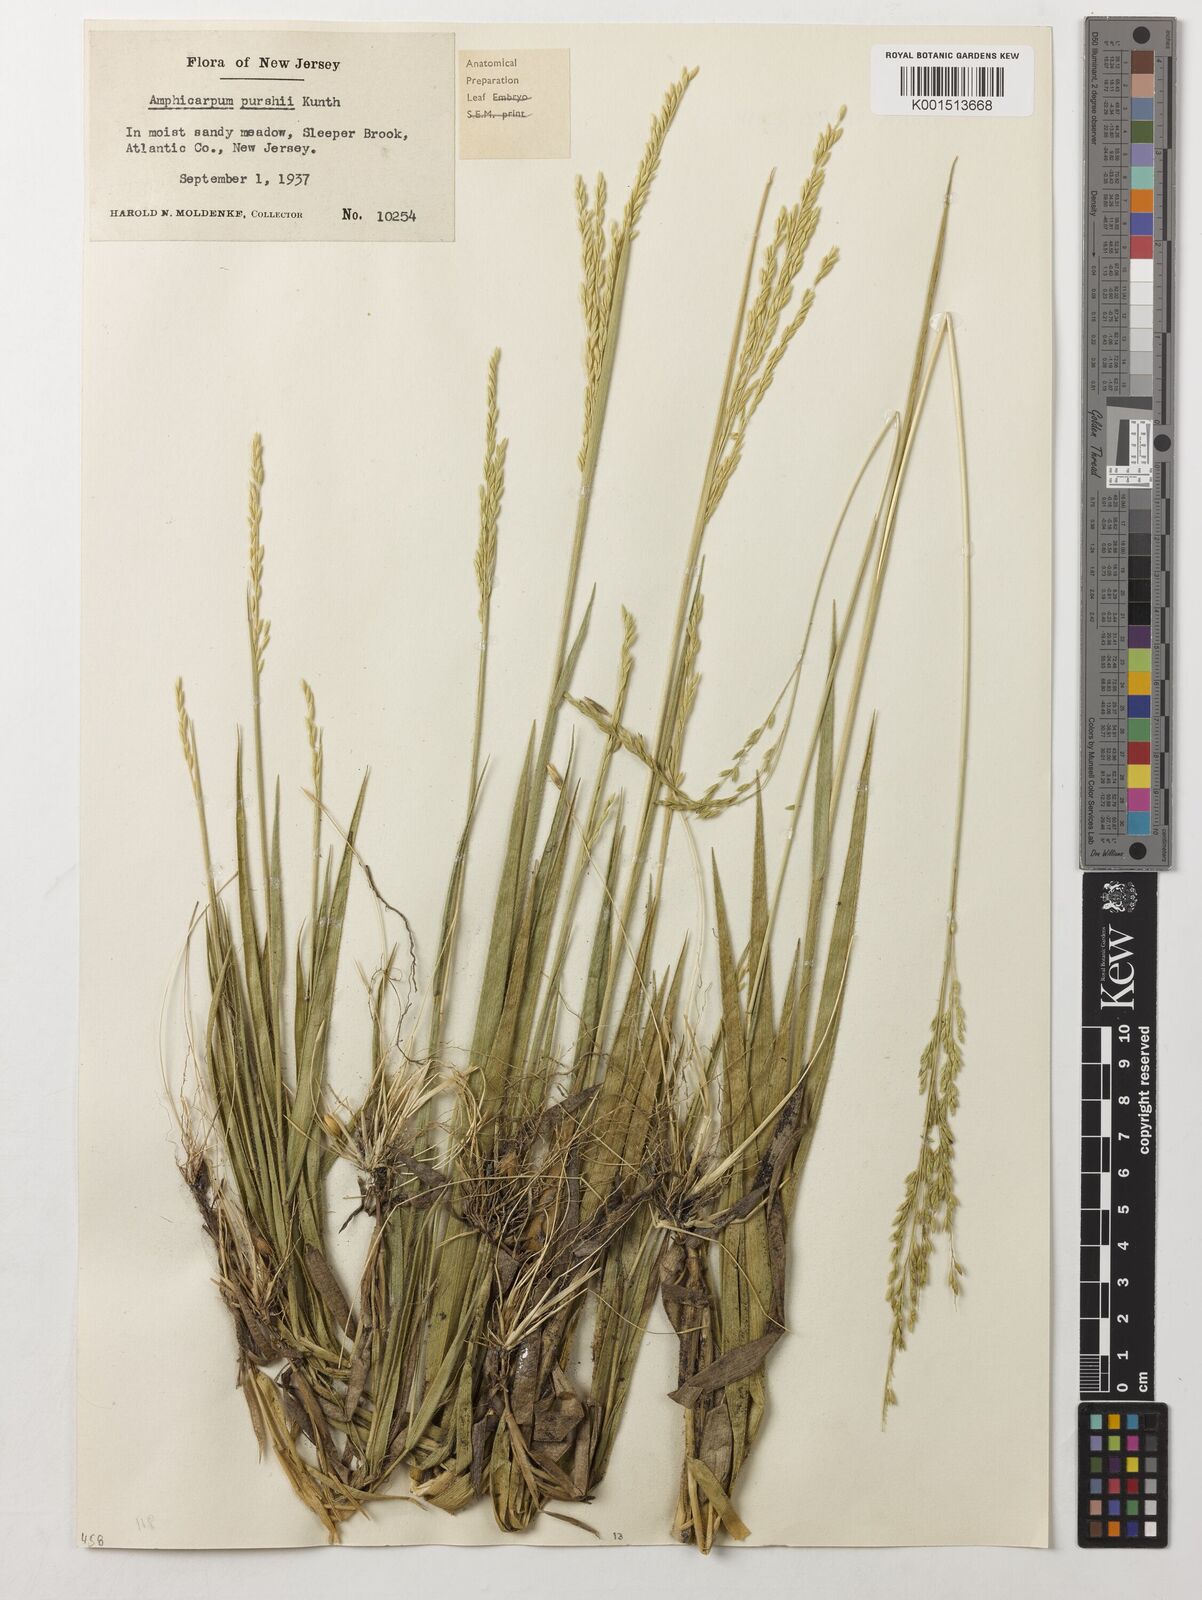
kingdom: Plantae
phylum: Tracheophyta
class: Liliopsida
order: Poales
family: Poaceae
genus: Amphicarpum
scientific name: Amphicarpum amphicarpon
